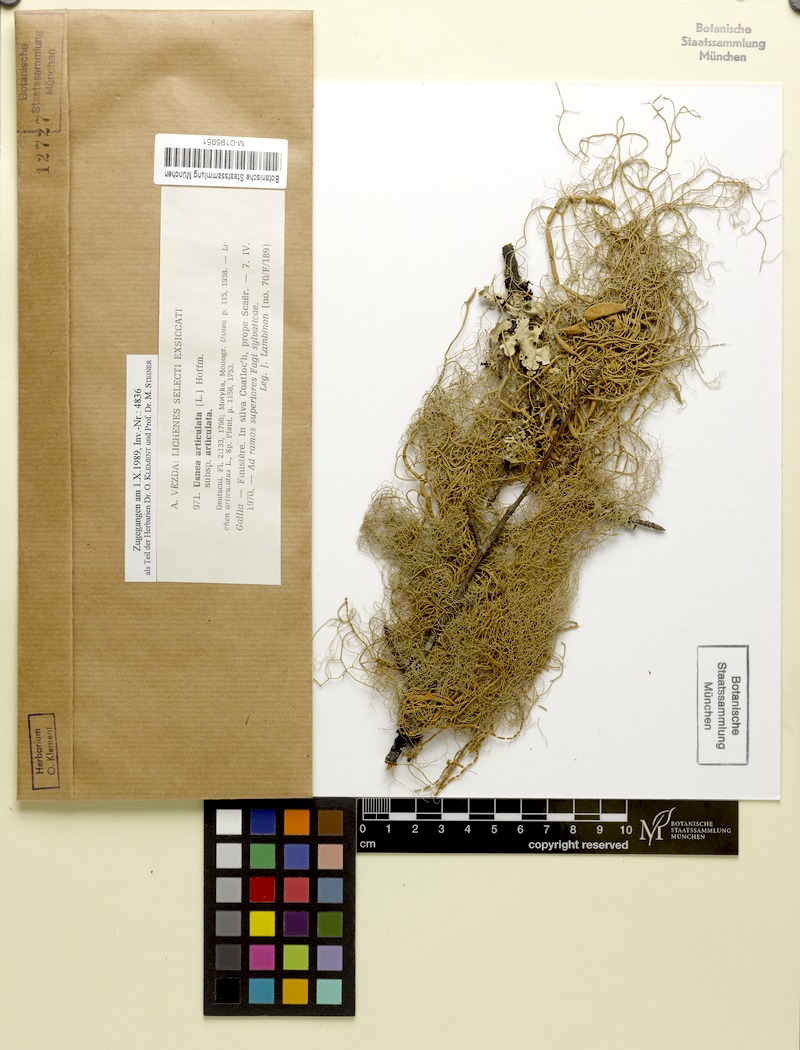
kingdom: Fungi
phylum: Ascomycota
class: Lecanoromycetes
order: Lecanorales
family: Parmeliaceae
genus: Usnea
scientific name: Usnea articulata
